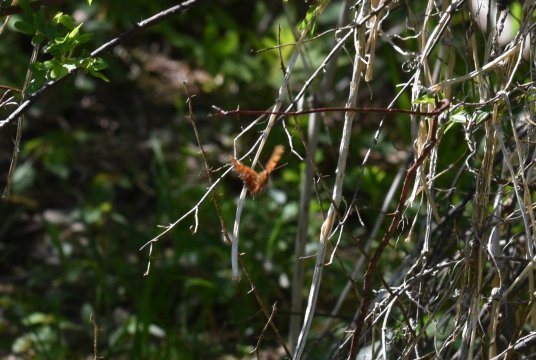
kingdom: Animalia
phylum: Arthropoda
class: Insecta
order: Lepidoptera
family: Nymphalidae
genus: Polygonia
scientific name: Polygonia
